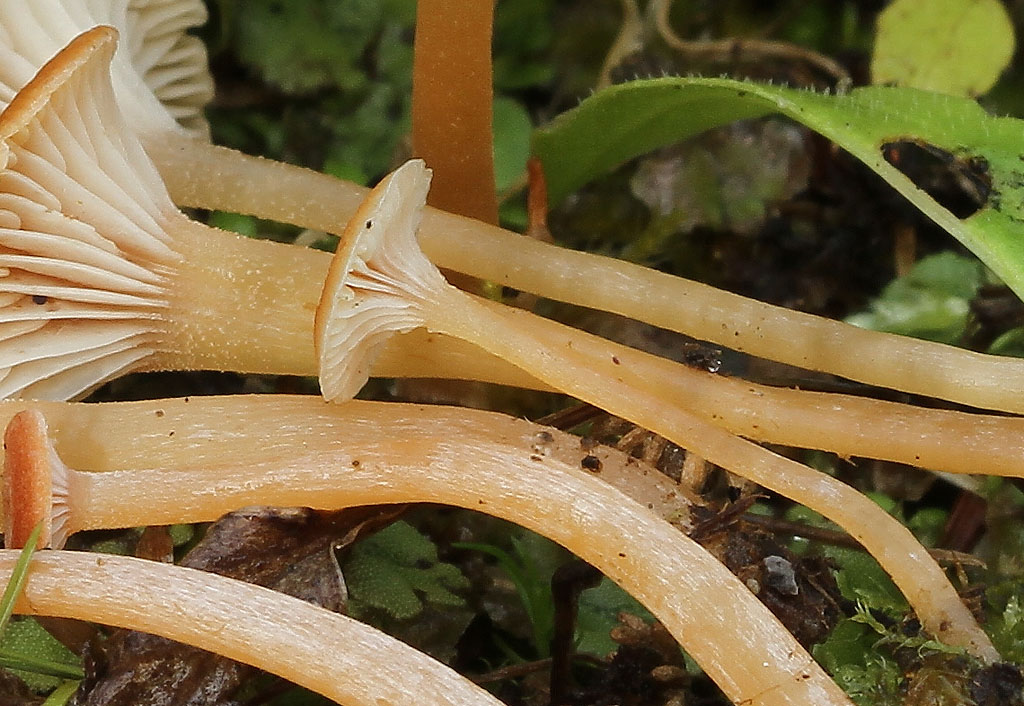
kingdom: Fungi
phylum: Basidiomycota
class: Agaricomycetes
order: Hymenochaetales
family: Rickenellaceae
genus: Loreleia
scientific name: Loreleia postii
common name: brandplet-mosnavlehat
